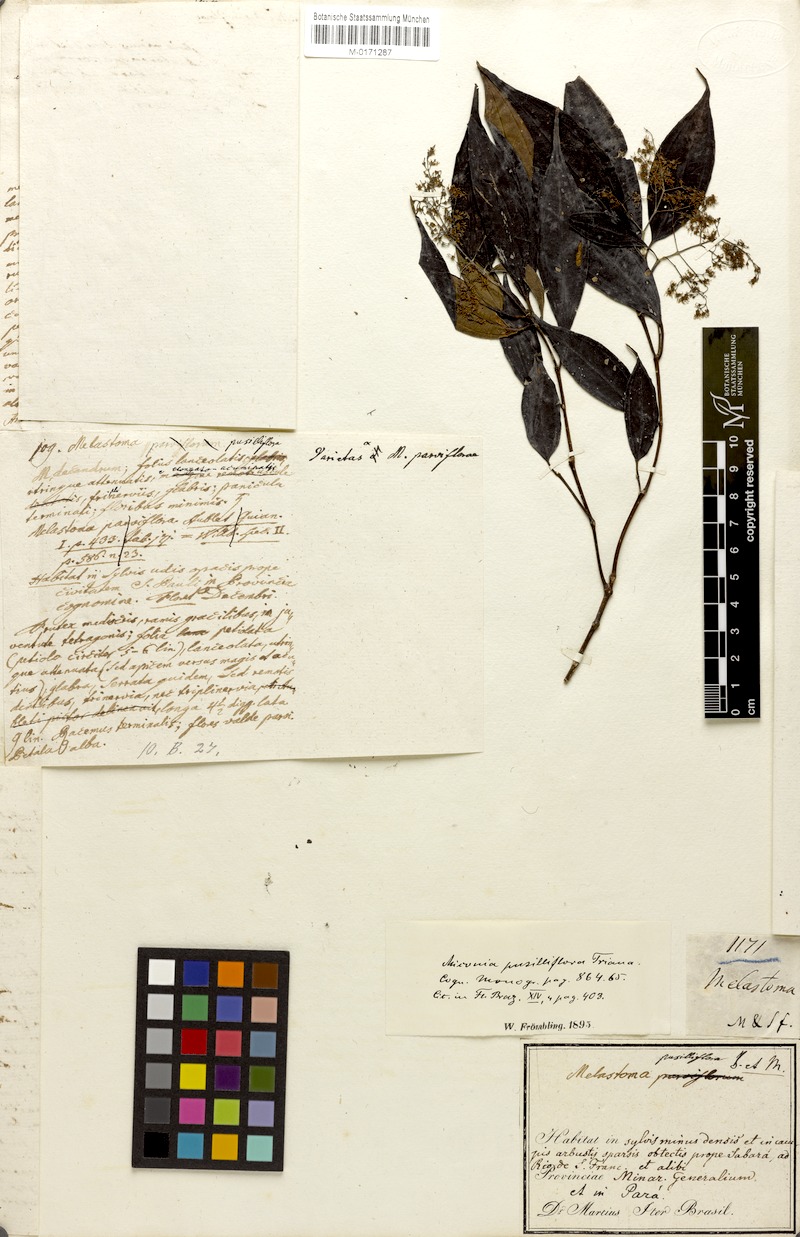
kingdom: Plantae
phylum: Tracheophyta
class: Magnoliopsida
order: Myrtales
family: Melastomataceae
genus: Miconia
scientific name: Miconia pusilliflora
